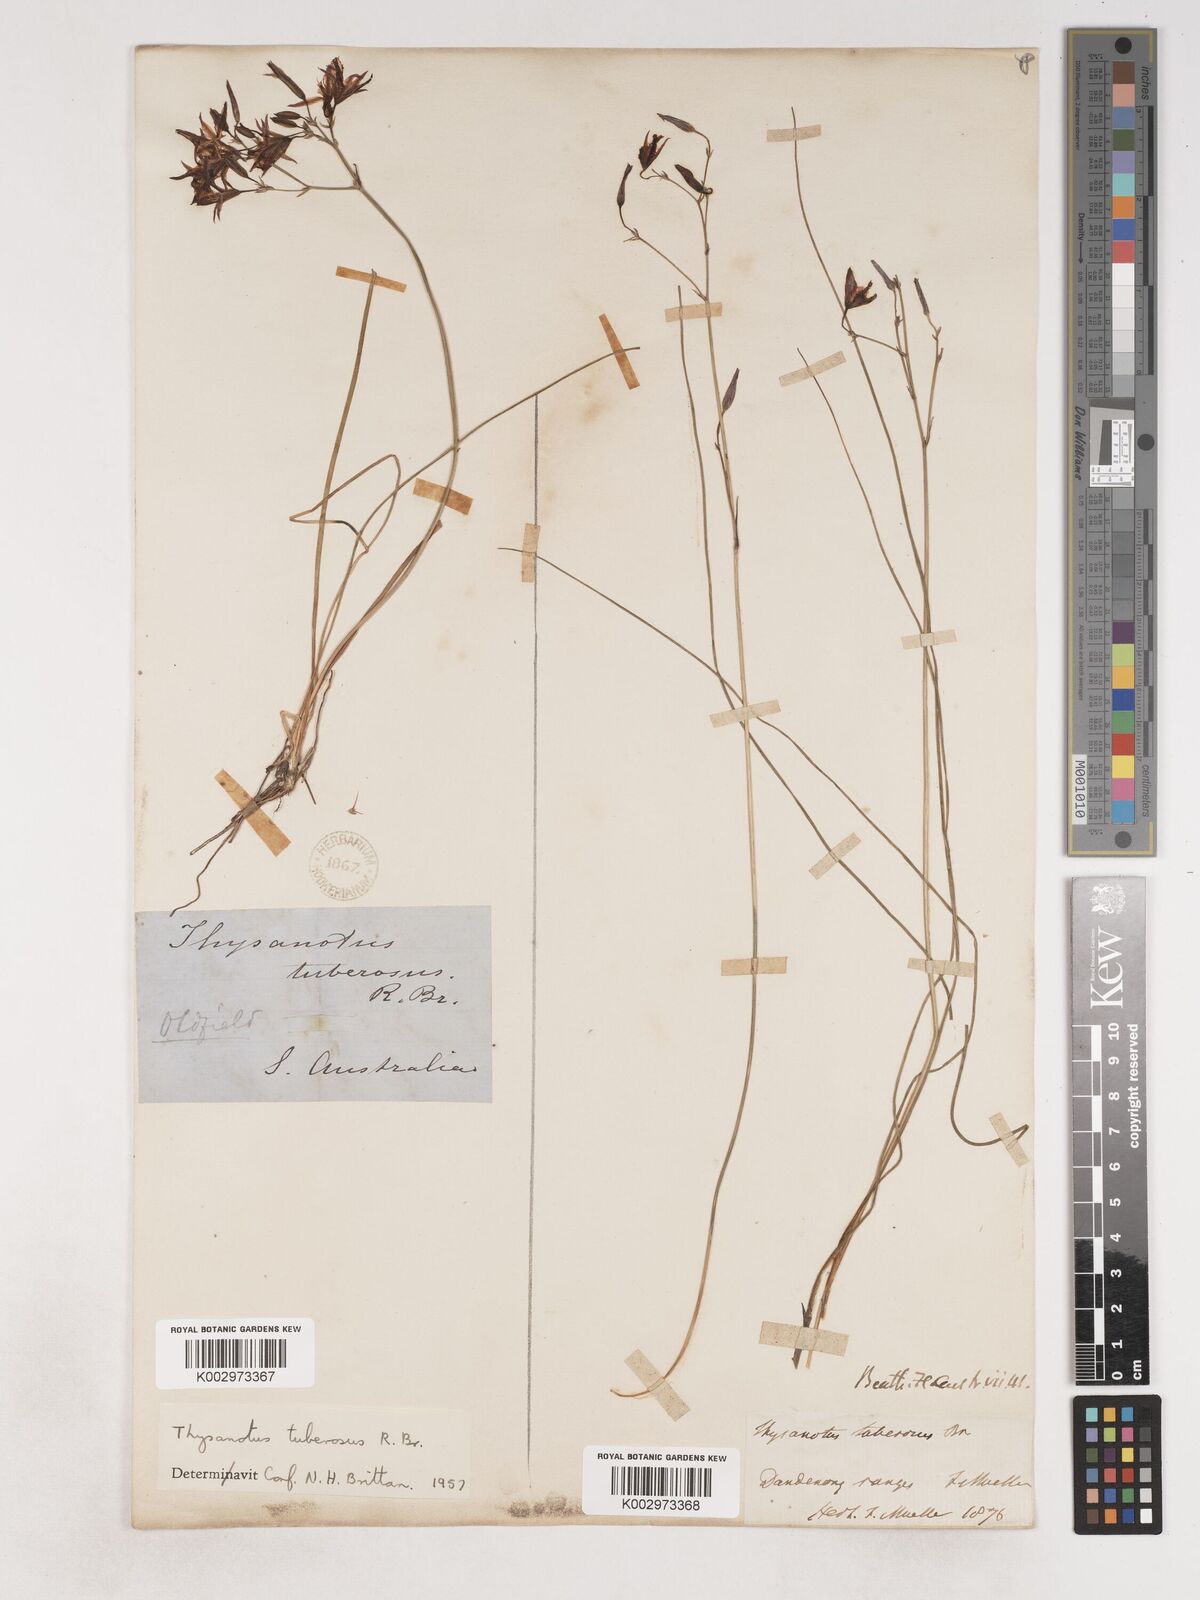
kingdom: Plantae
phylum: Tracheophyta
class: Liliopsida
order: Asparagales
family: Asparagaceae
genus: Thysanotus
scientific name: Thysanotus tuberosus
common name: Common fringed-lily
